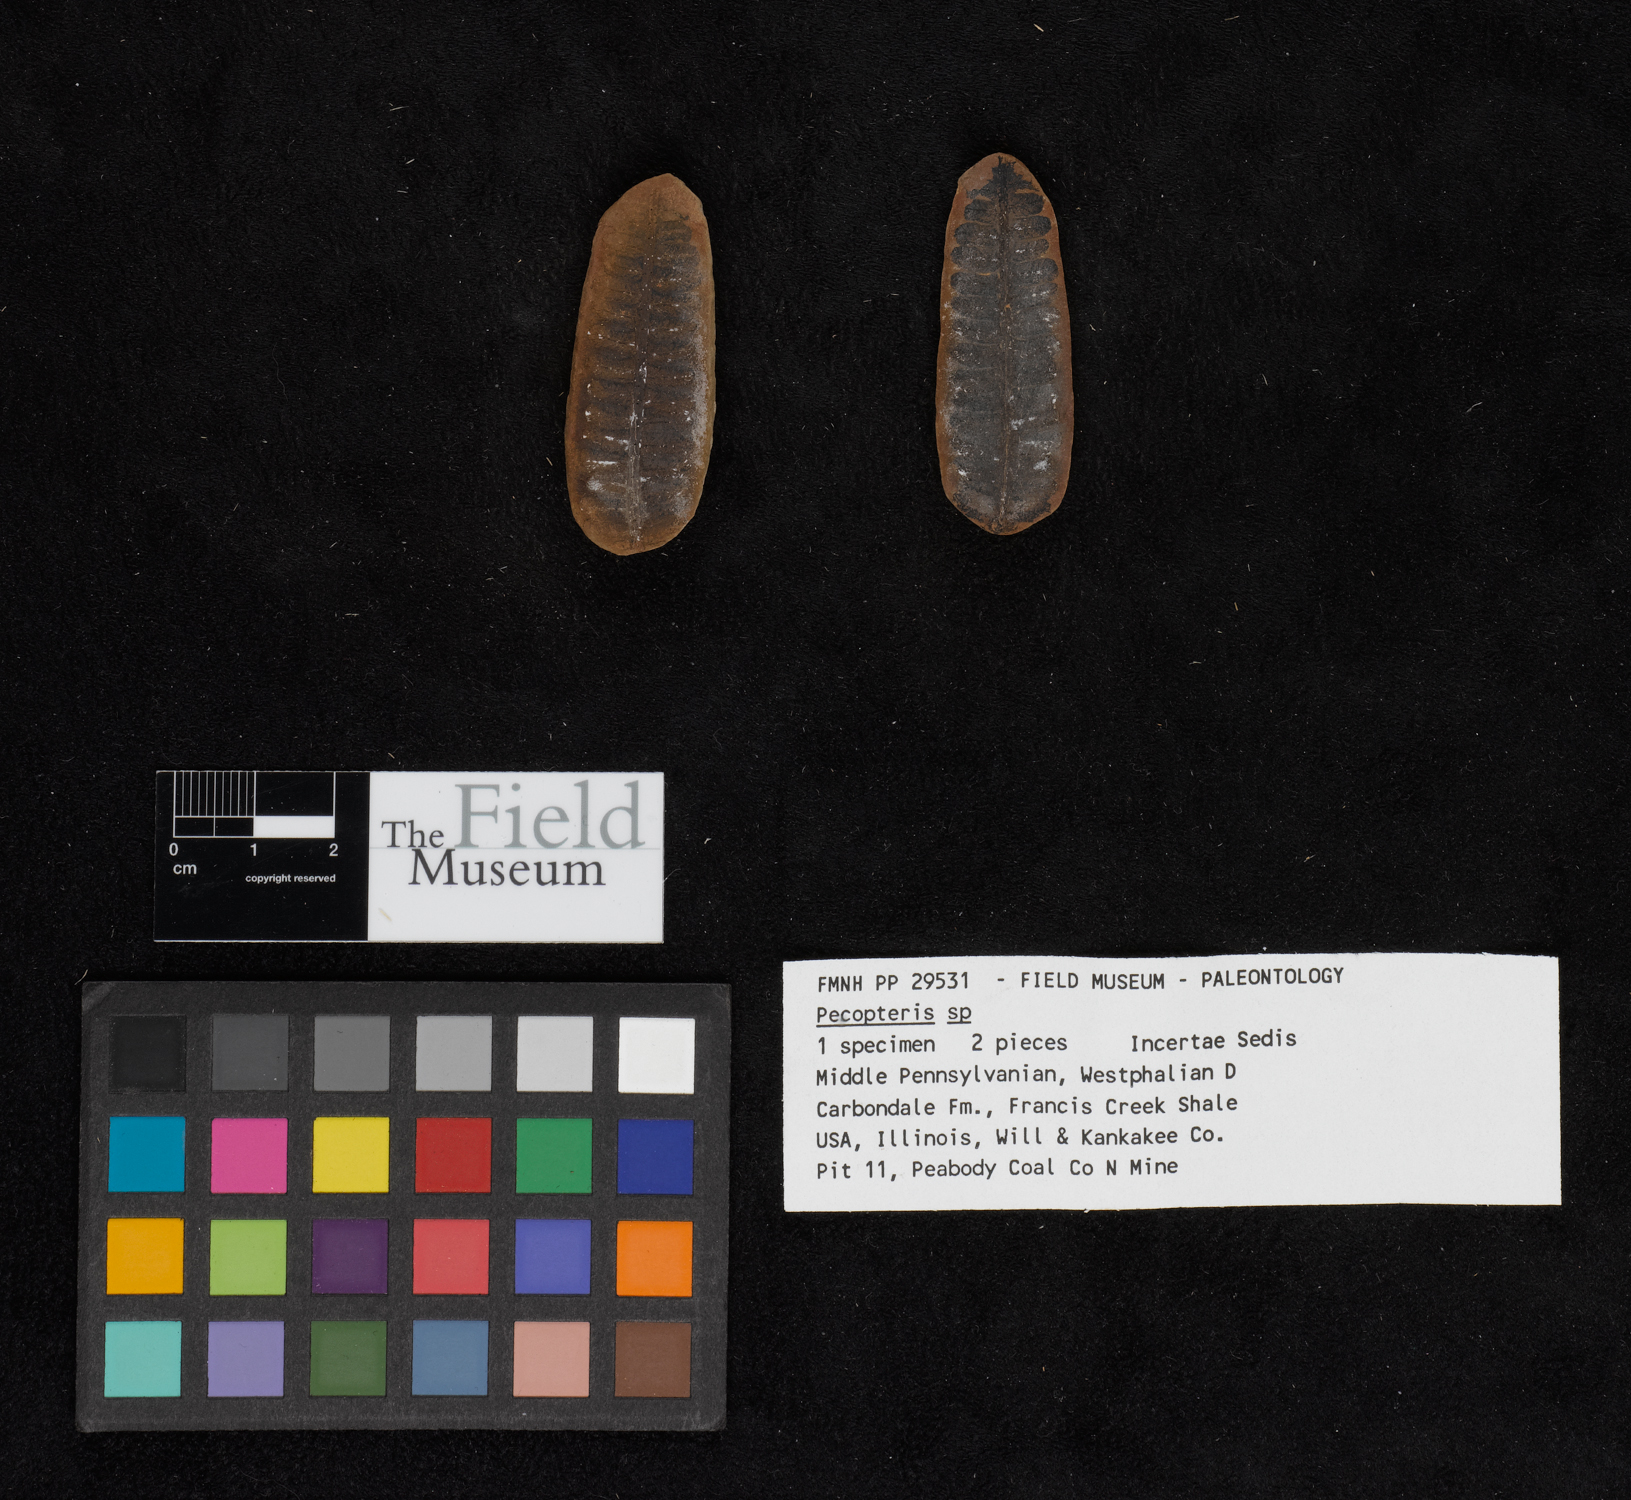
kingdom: Plantae
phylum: Tracheophyta
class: Polypodiopsida
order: Marattiales
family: Asterothecaceae
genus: Pecopteris
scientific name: Pecopteris
